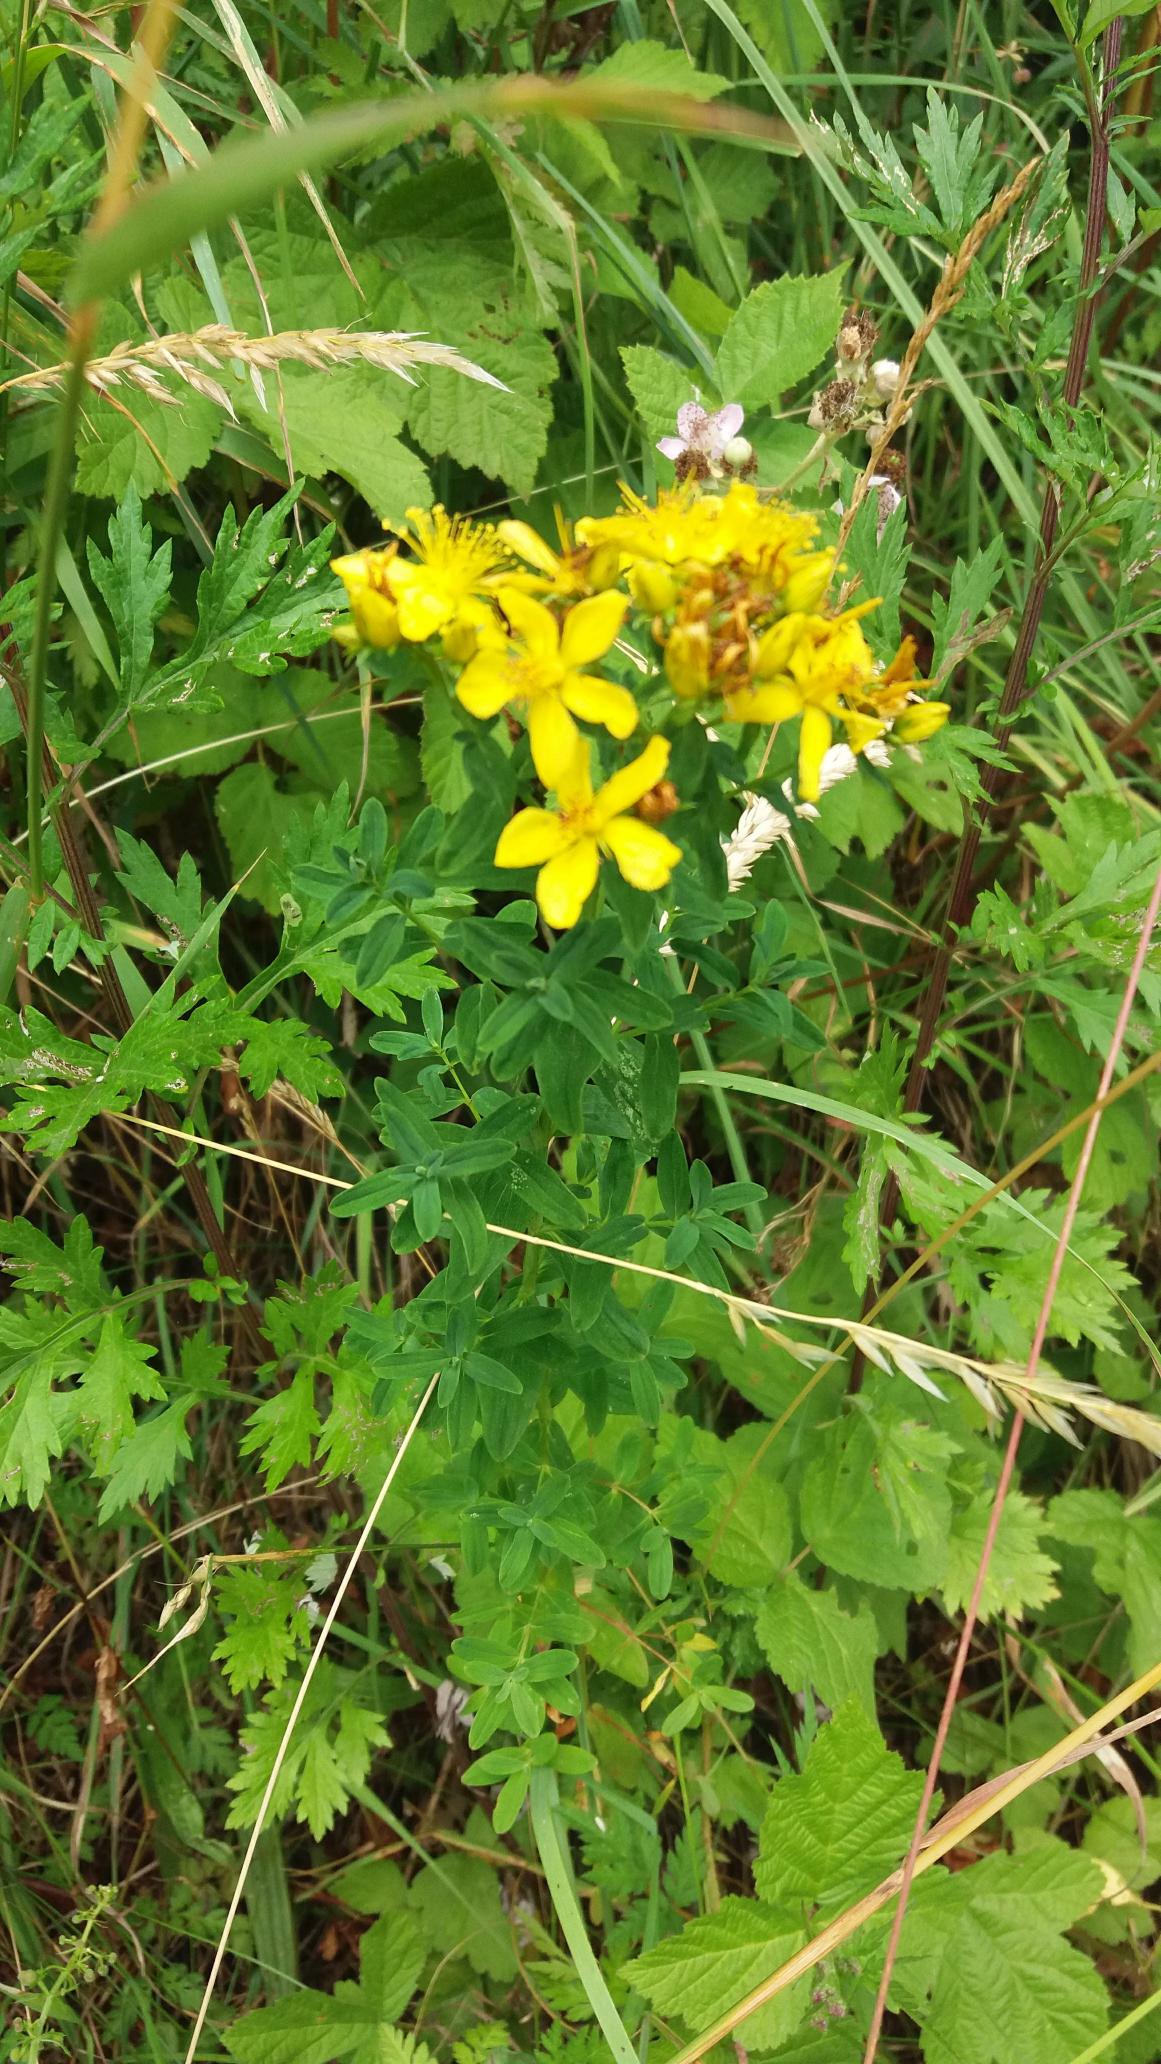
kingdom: Plantae
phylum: Tracheophyta
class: Magnoliopsida
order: Malpighiales
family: Hypericaceae
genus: Hypericum
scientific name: Hypericum perforatum
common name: Prikbladet perikon
